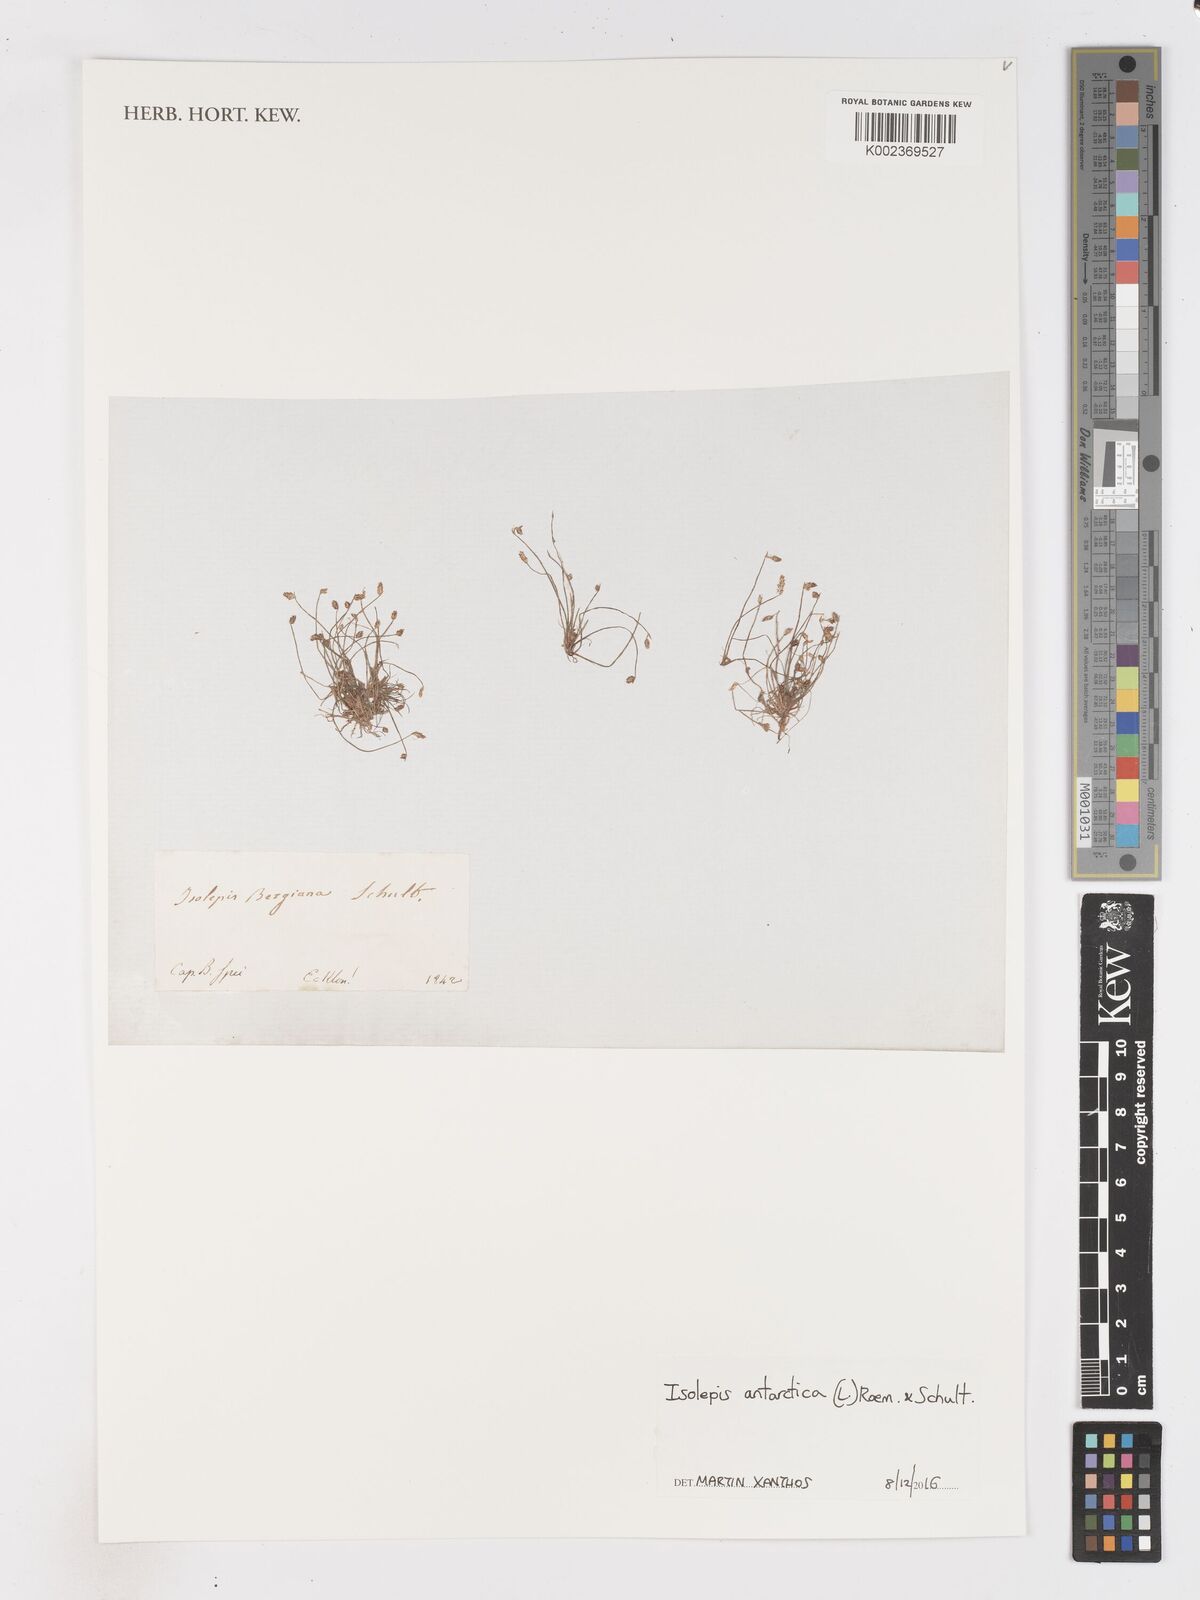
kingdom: Plantae
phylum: Tracheophyta
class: Liliopsida
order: Poales
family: Cyperaceae
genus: Isolepis
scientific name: Isolepis antarctica
